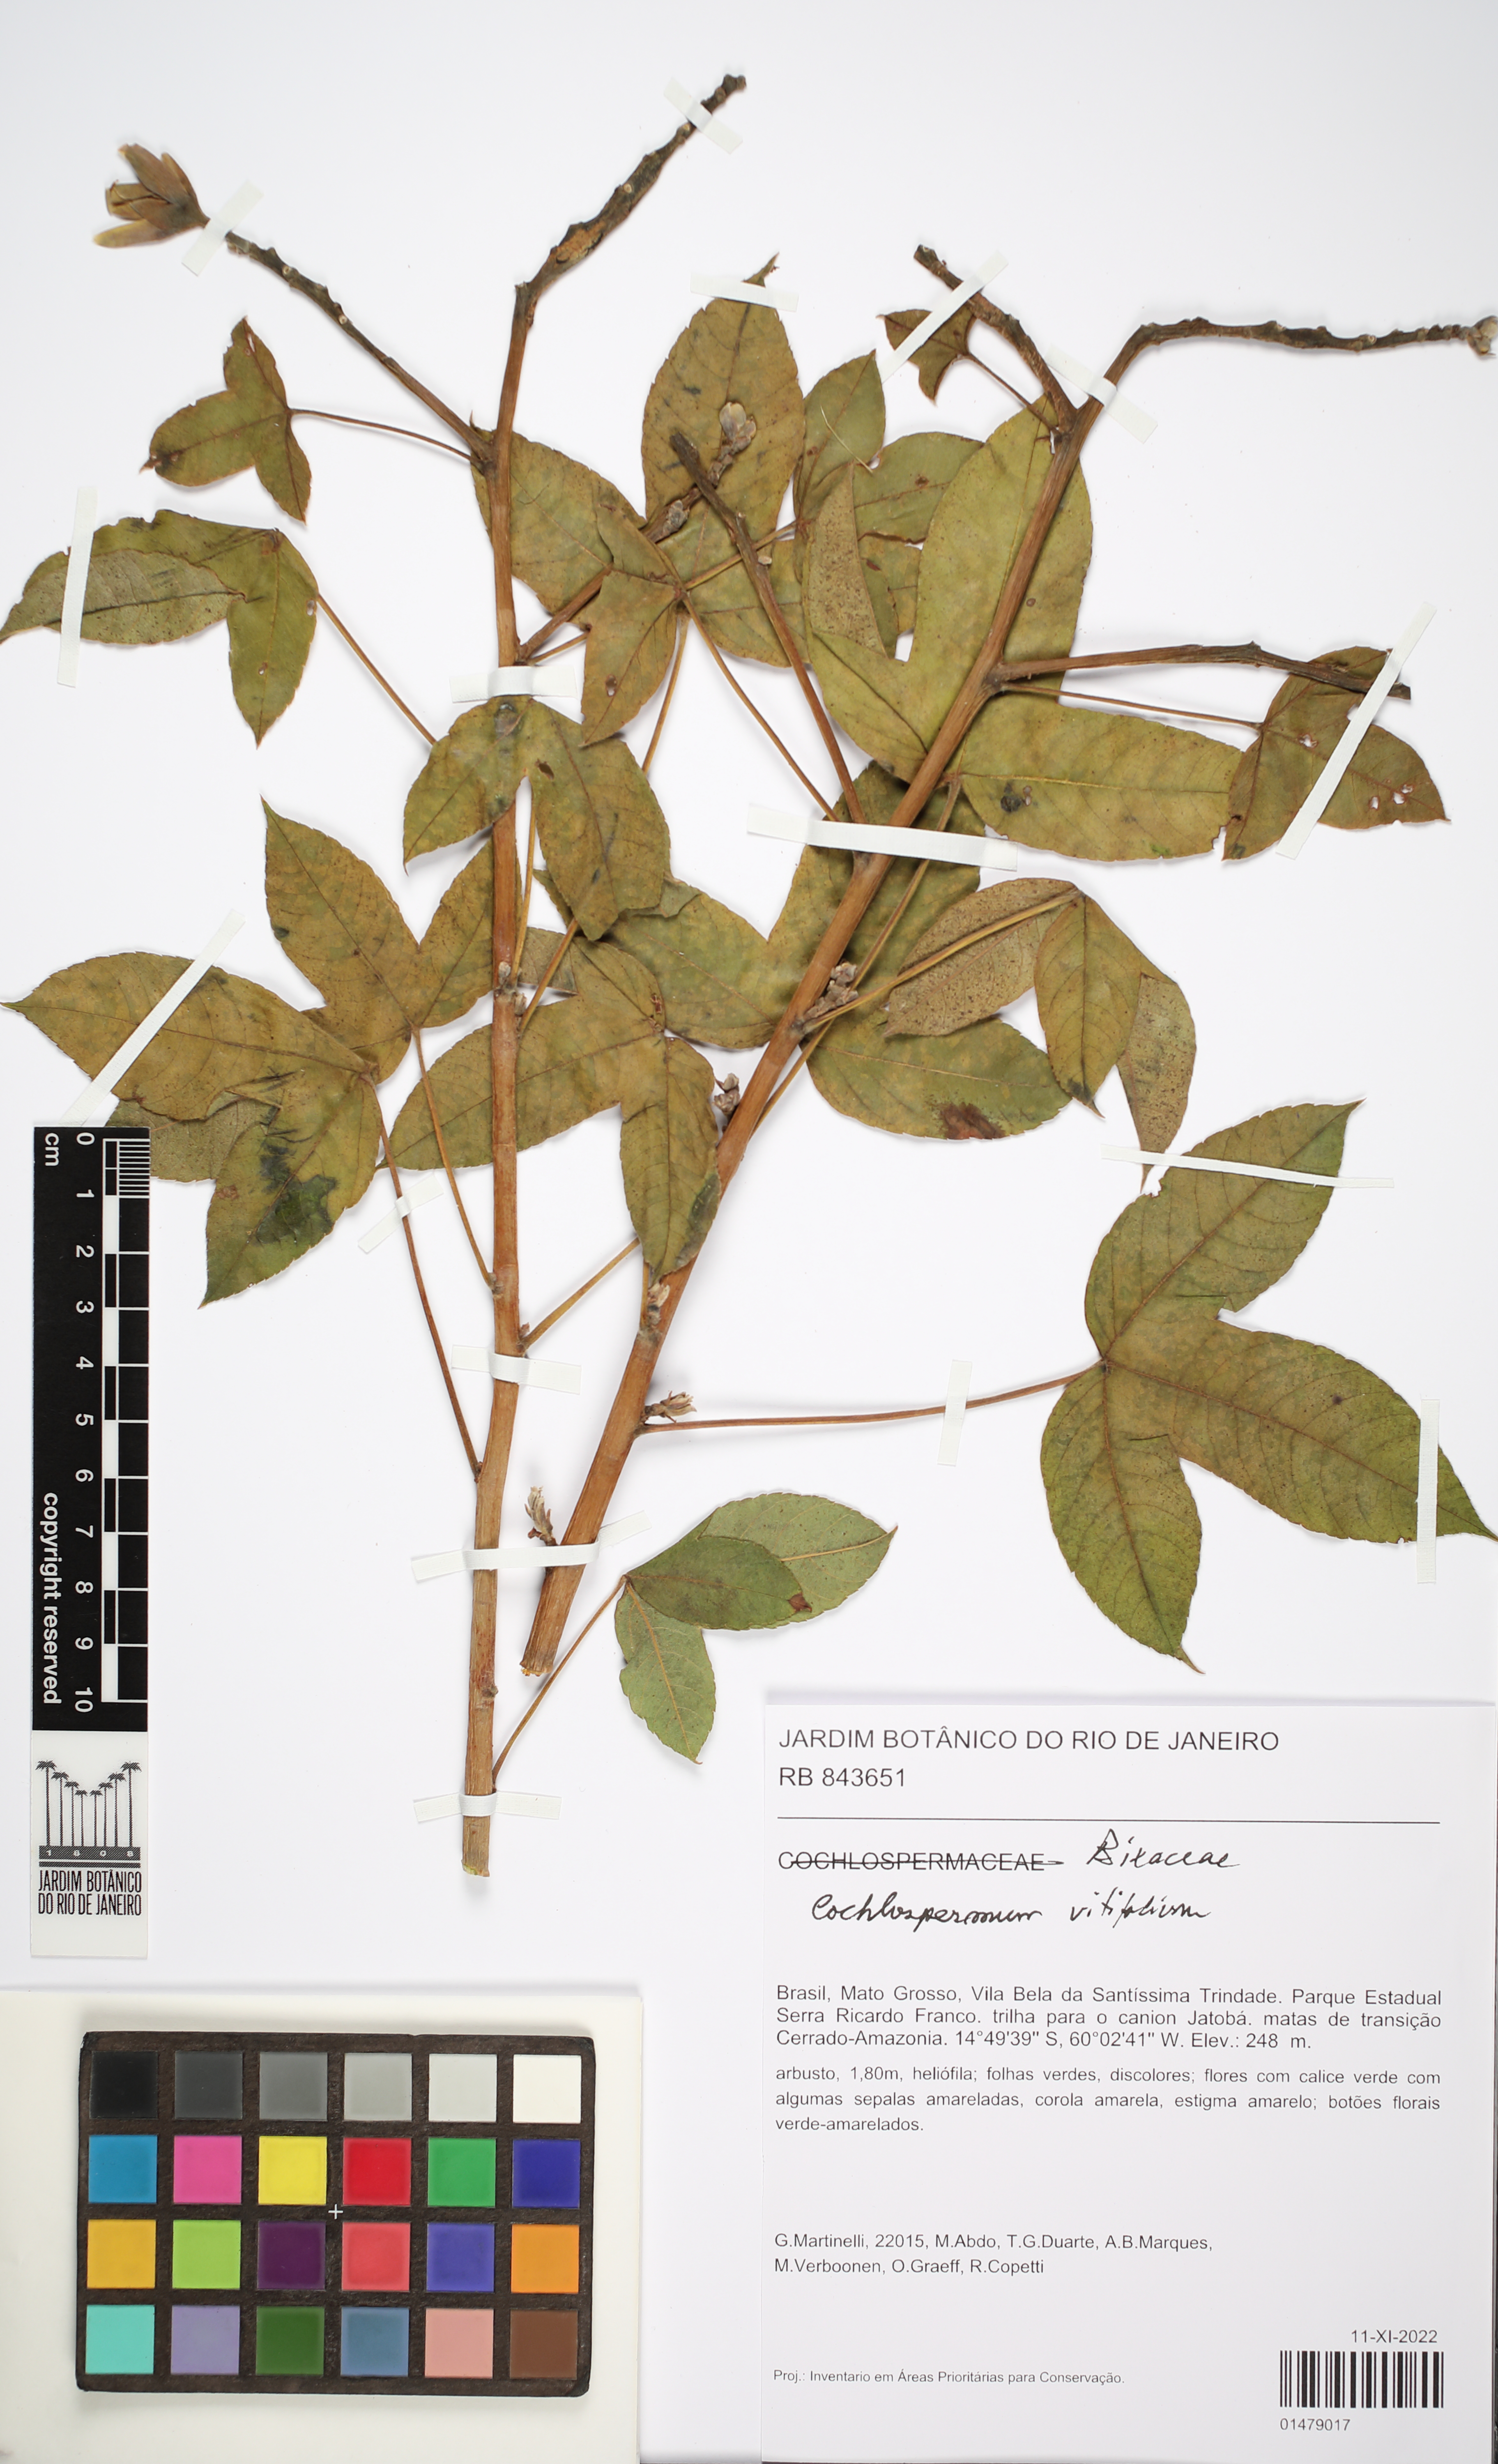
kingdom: Plantae
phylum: Tracheophyta
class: Magnoliopsida
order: Malvales
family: Cochlospermaceae
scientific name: Cochlospermaceae
